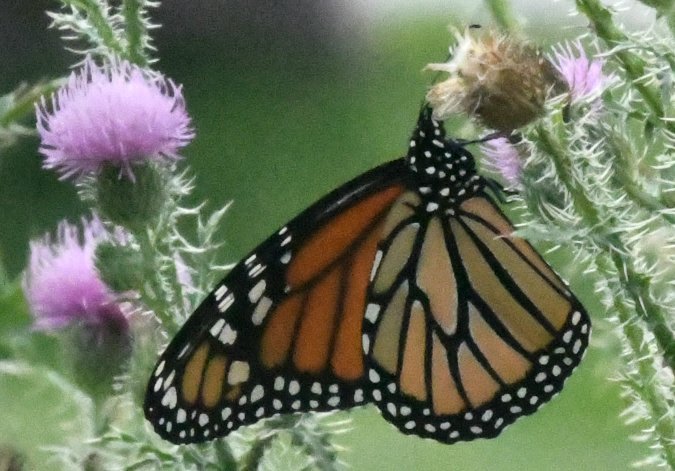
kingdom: Animalia
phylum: Arthropoda
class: Insecta
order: Lepidoptera
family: Nymphalidae
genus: Danaus
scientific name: Danaus plexippus
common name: Monarch
